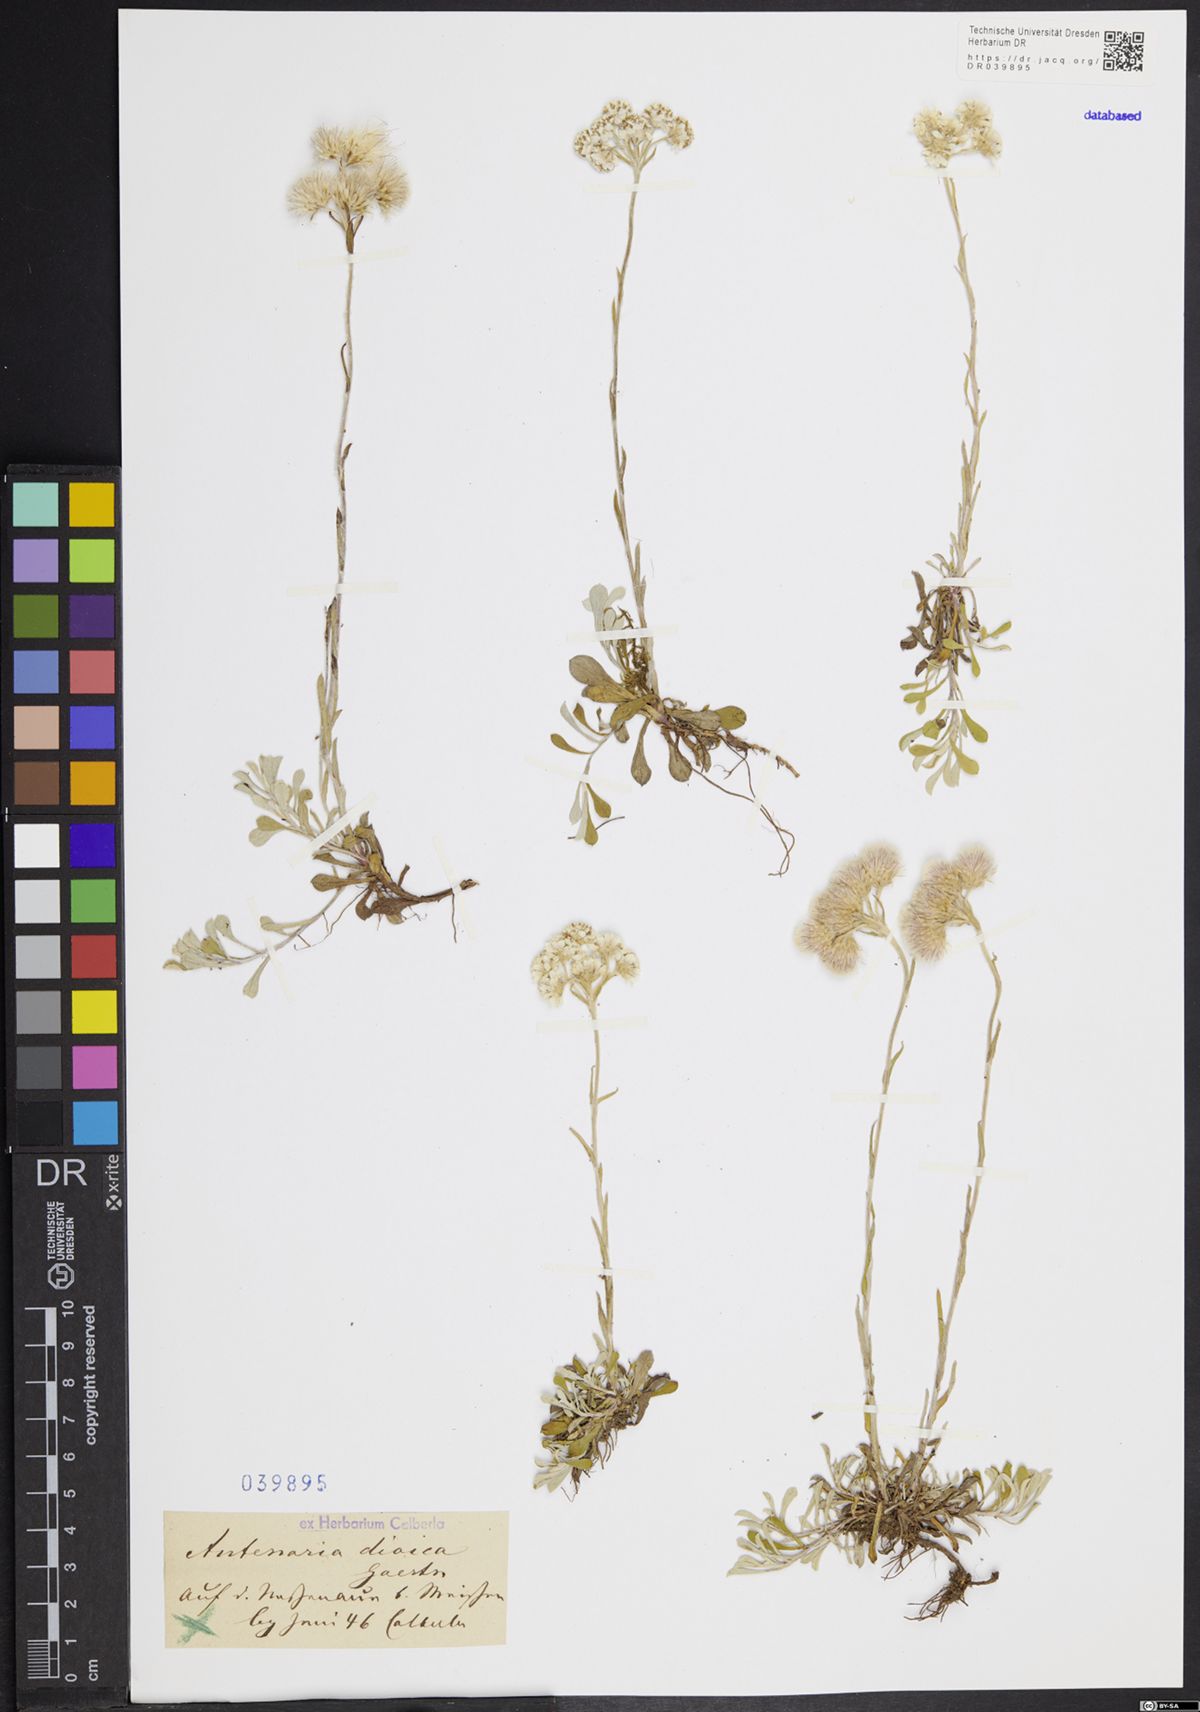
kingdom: Plantae
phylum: Tracheophyta
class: Magnoliopsida
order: Asterales
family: Asteraceae
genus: Antennaria
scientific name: Antennaria dioica
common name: Mountain everlasting
